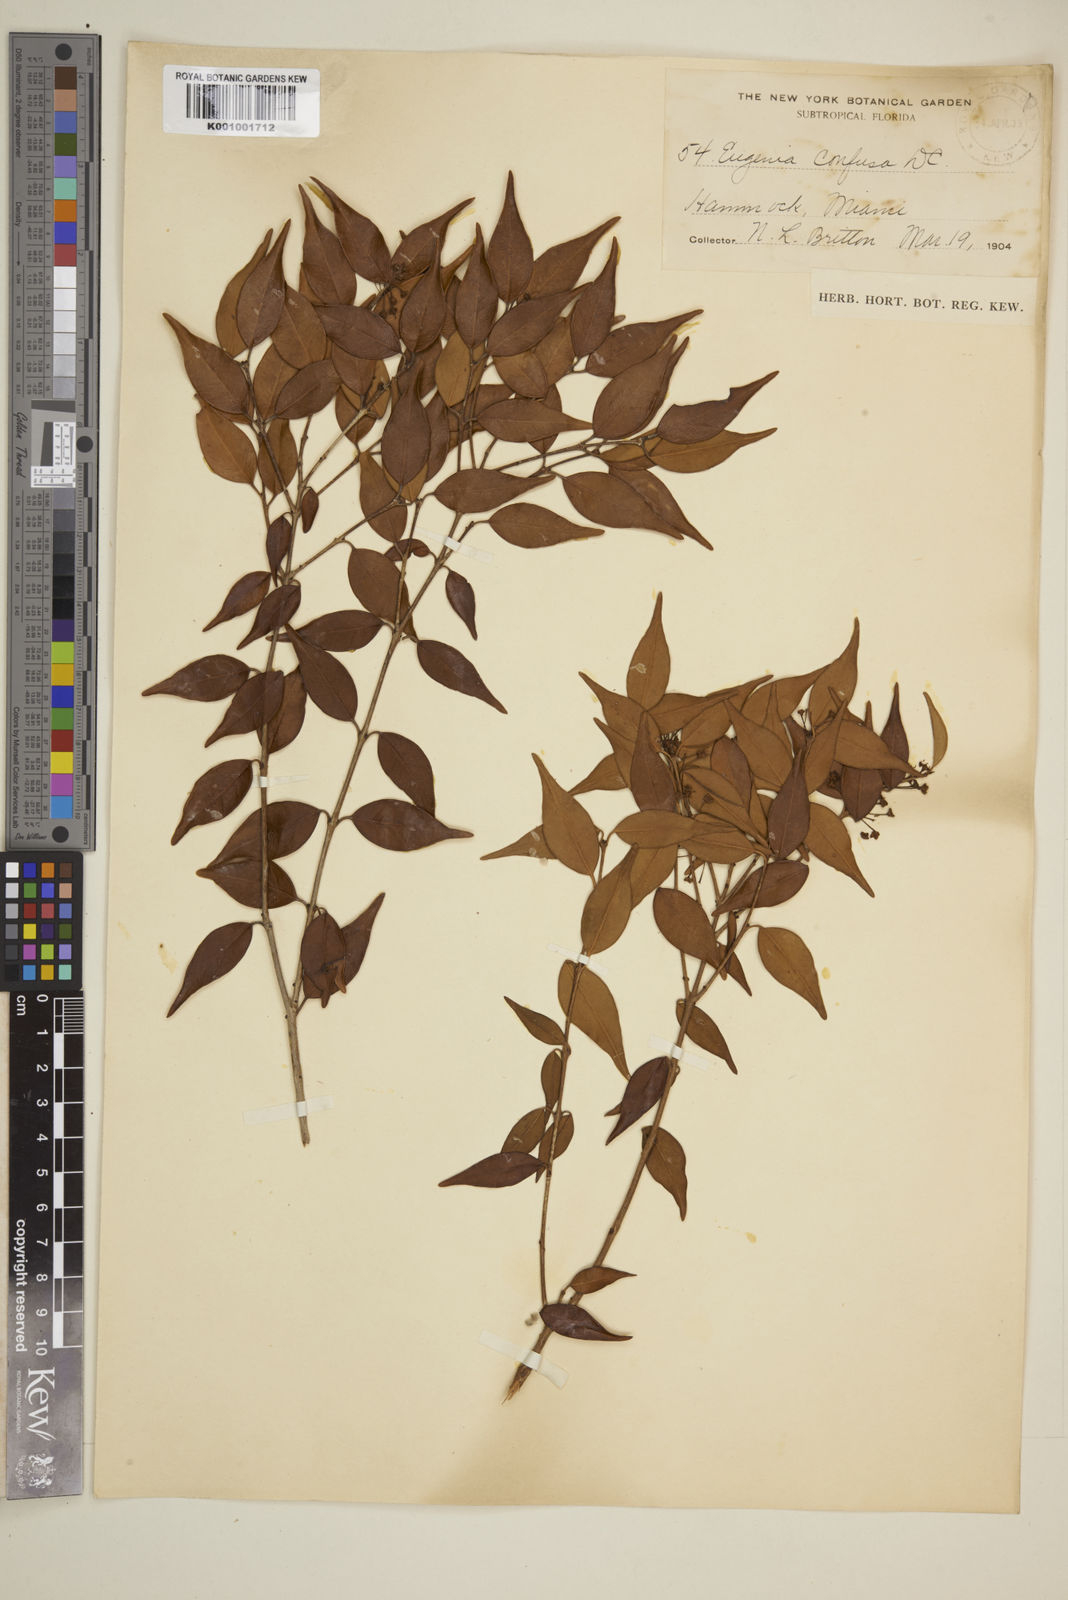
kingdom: Plantae
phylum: Tracheophyta
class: Magnoliopsida
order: Myrtales
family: Myrtaceae
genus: Eugenia
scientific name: Eugenia confusa
